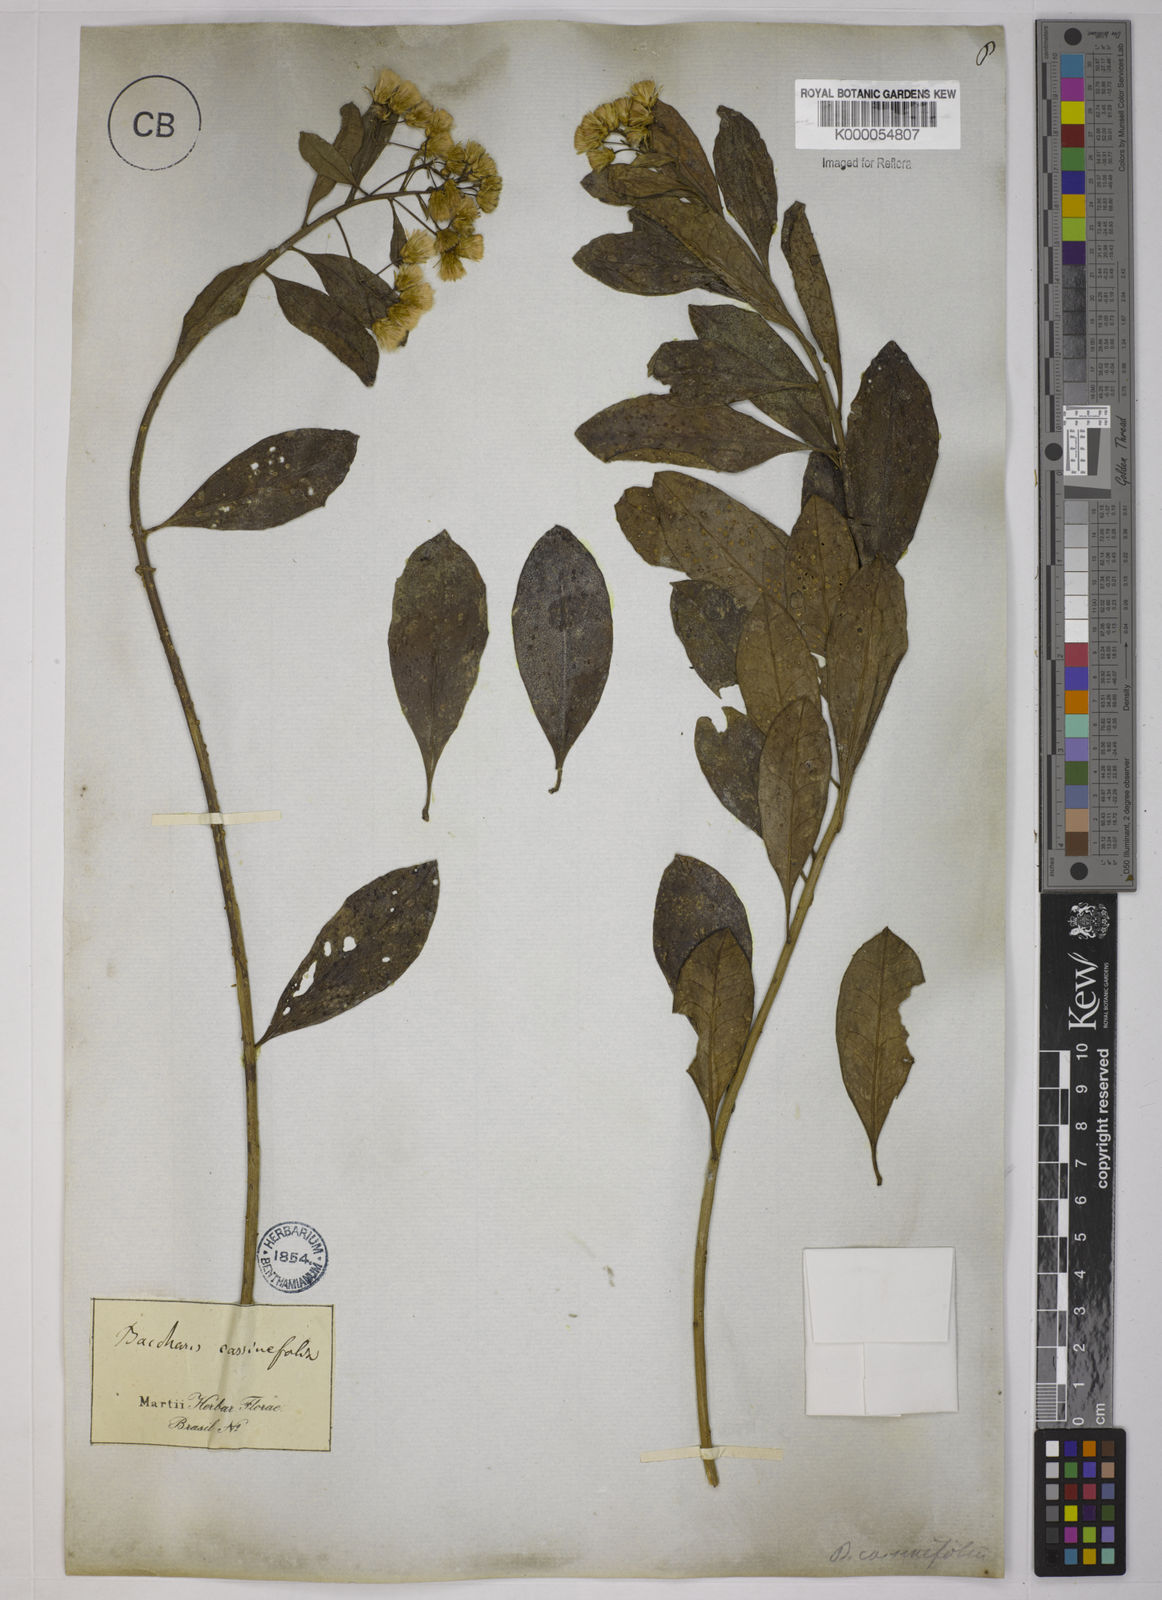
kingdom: Plantae
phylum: Tracheophyta
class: Magnoliopsida
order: Asterales
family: Asteraceae
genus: Baccharis
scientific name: Baccharis singularis
